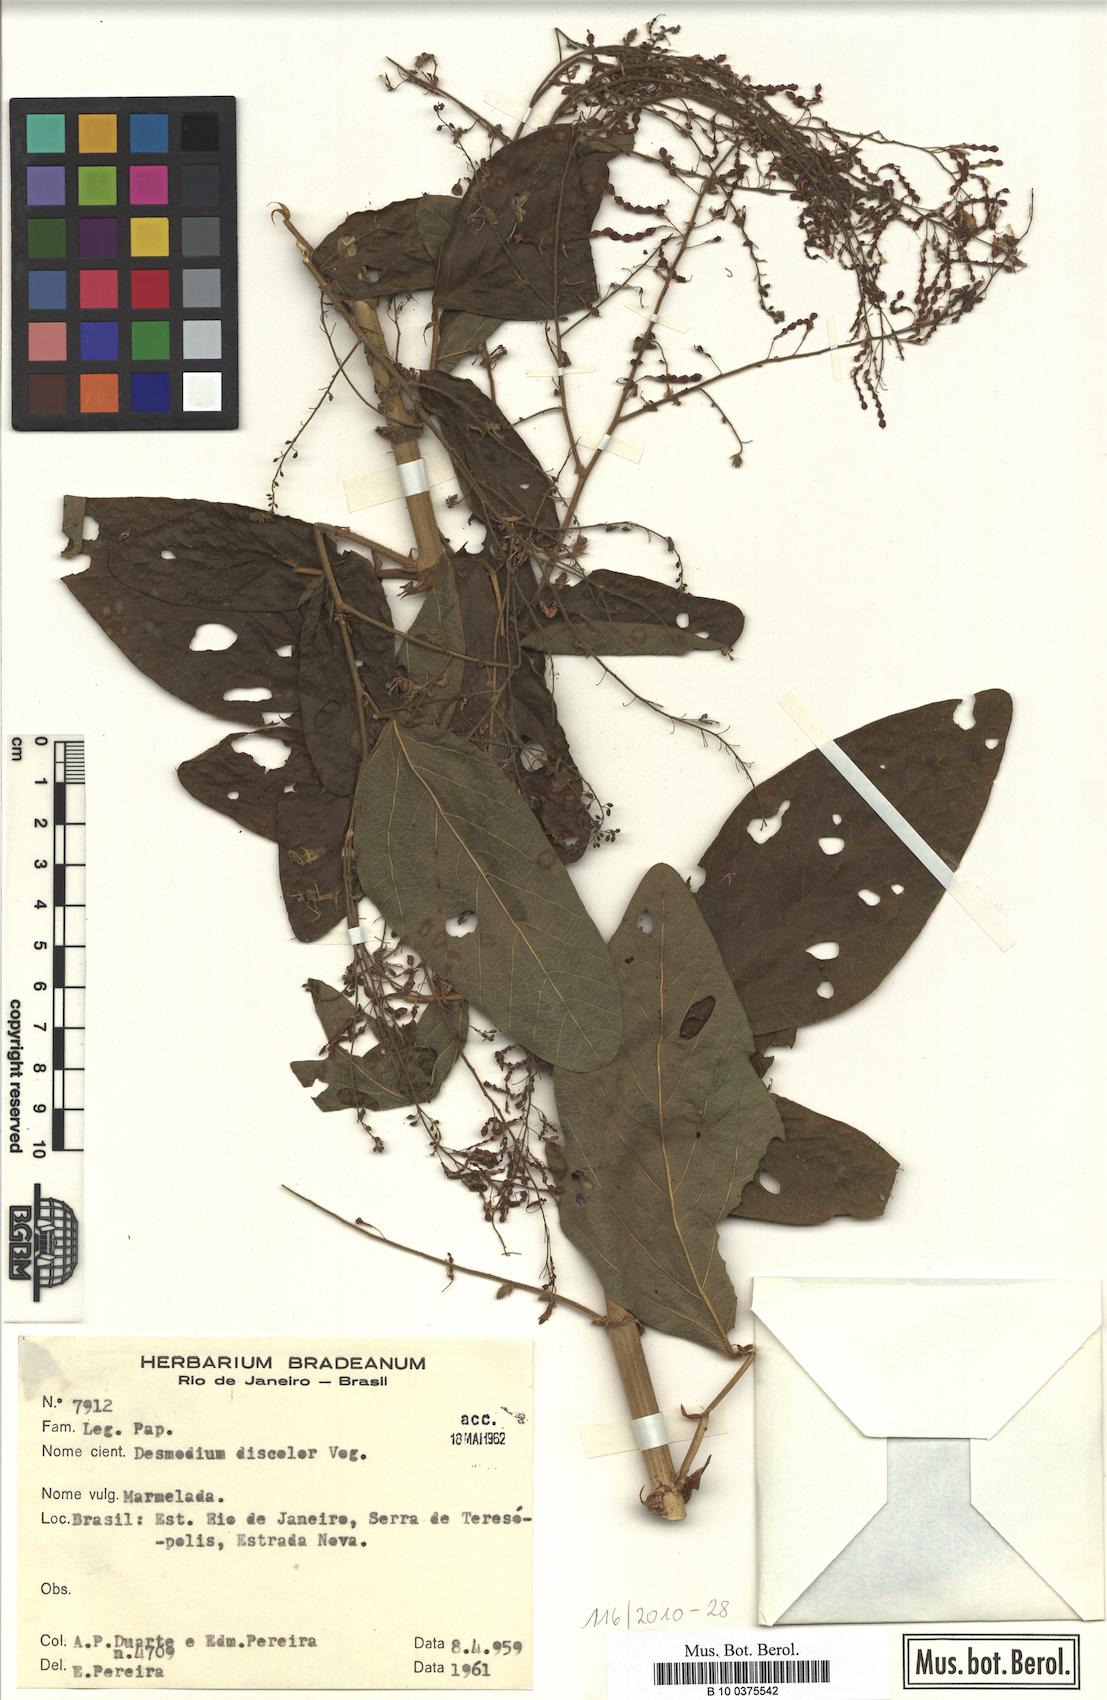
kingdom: Plantae
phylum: Tracheophyta
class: Magnoliopsida
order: Fabales
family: Fabaceae
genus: Desmodium
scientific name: Desmodium subsecundum
